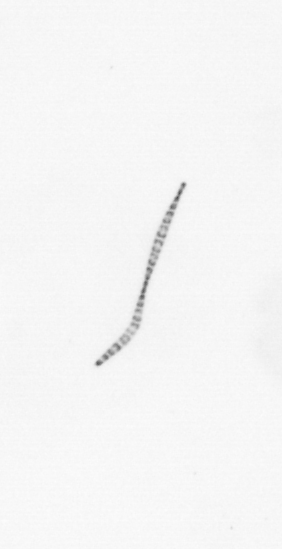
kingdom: Chromista
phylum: Ochrophyta
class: Bacillariophyceae
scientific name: Bacillariophyceae
